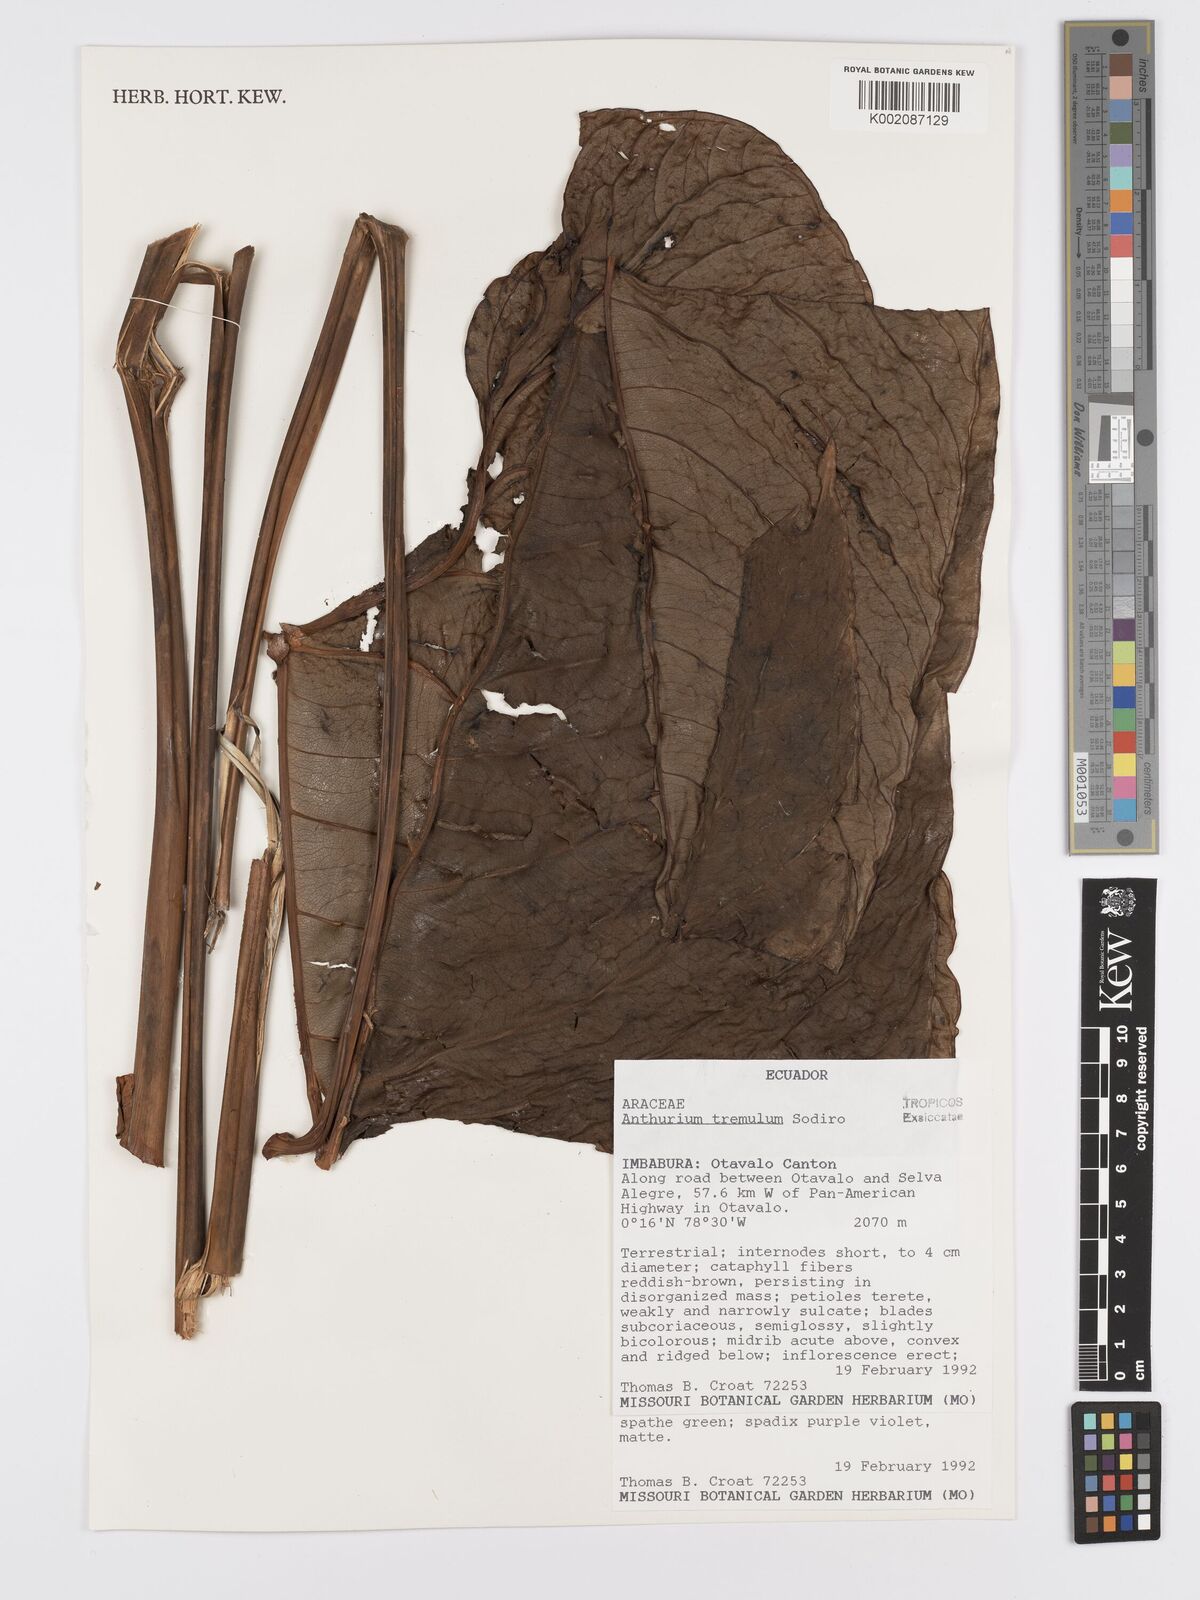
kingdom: Plantae
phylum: Tracheophyta
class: Liliopsida
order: Alismatales
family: Araceae
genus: Anthurium
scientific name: Anthurium tremulum
